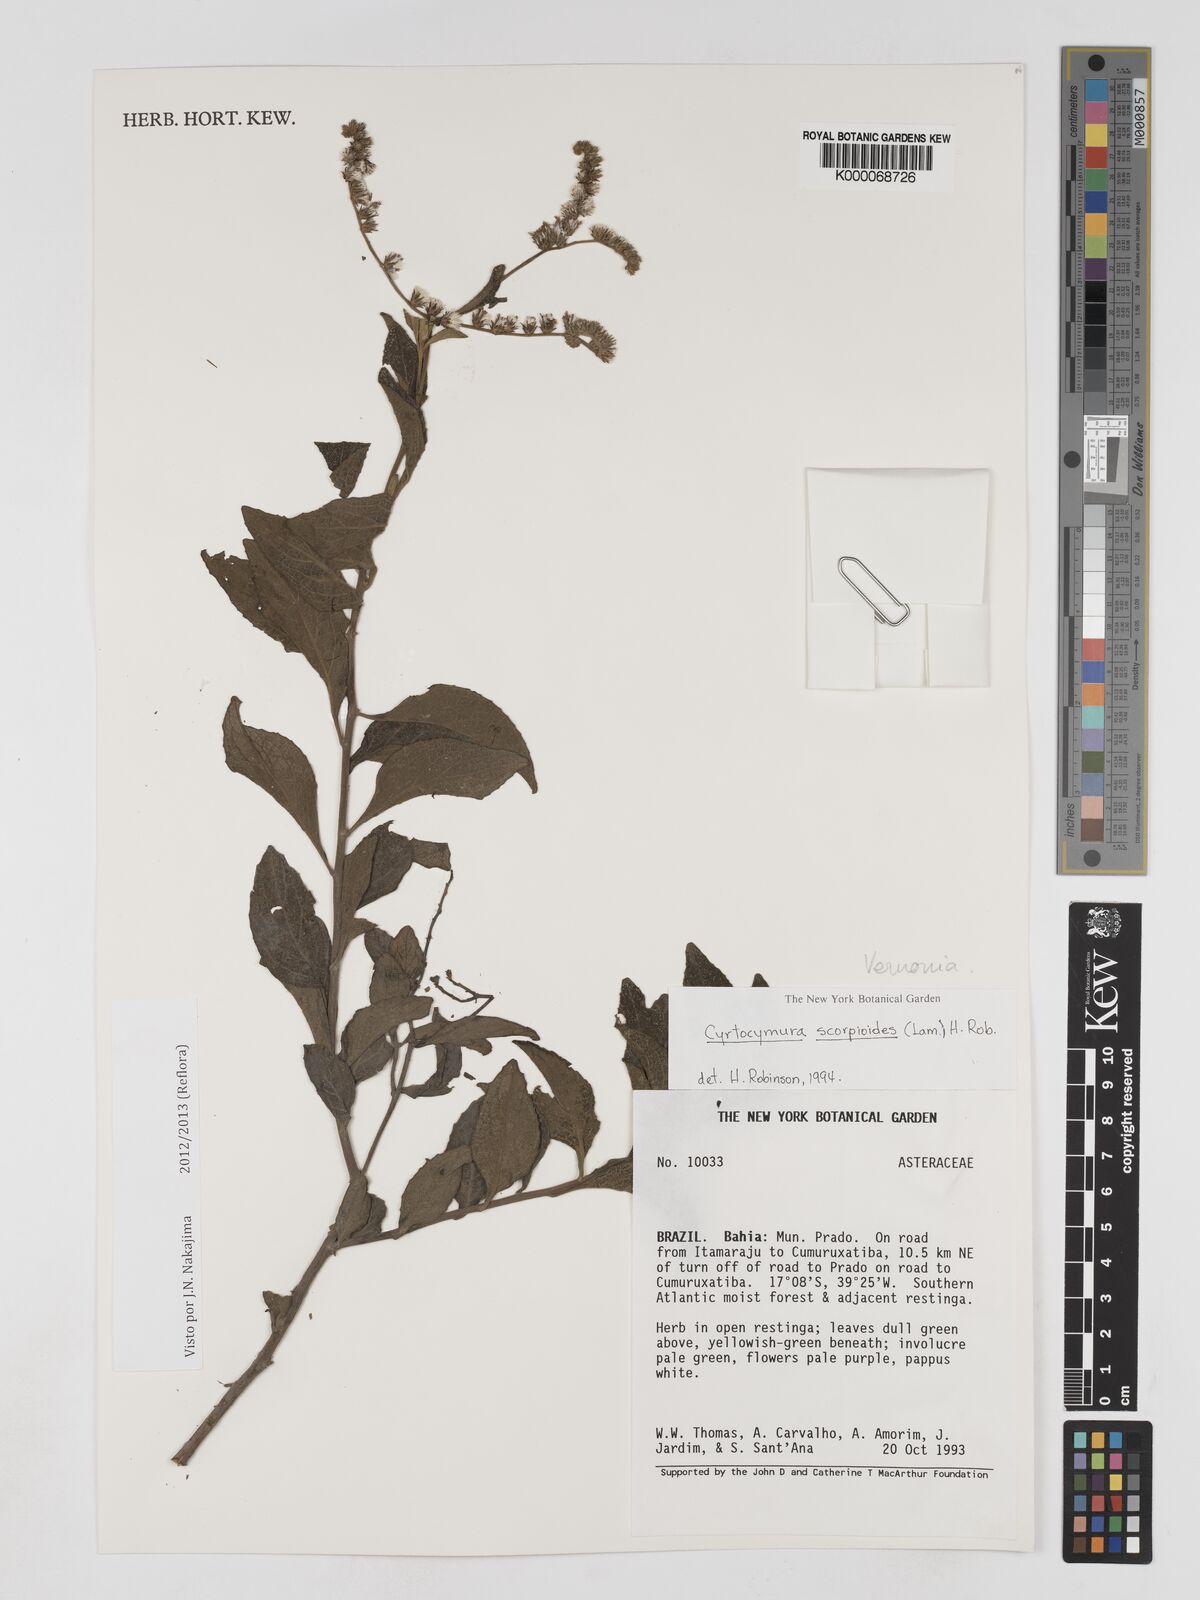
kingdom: Plantae
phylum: Tracheophyta
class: Magnoliopsida
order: Asterales
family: Asteraceae
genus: Cyrtocymura
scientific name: Cyrtocymura scorpioides
